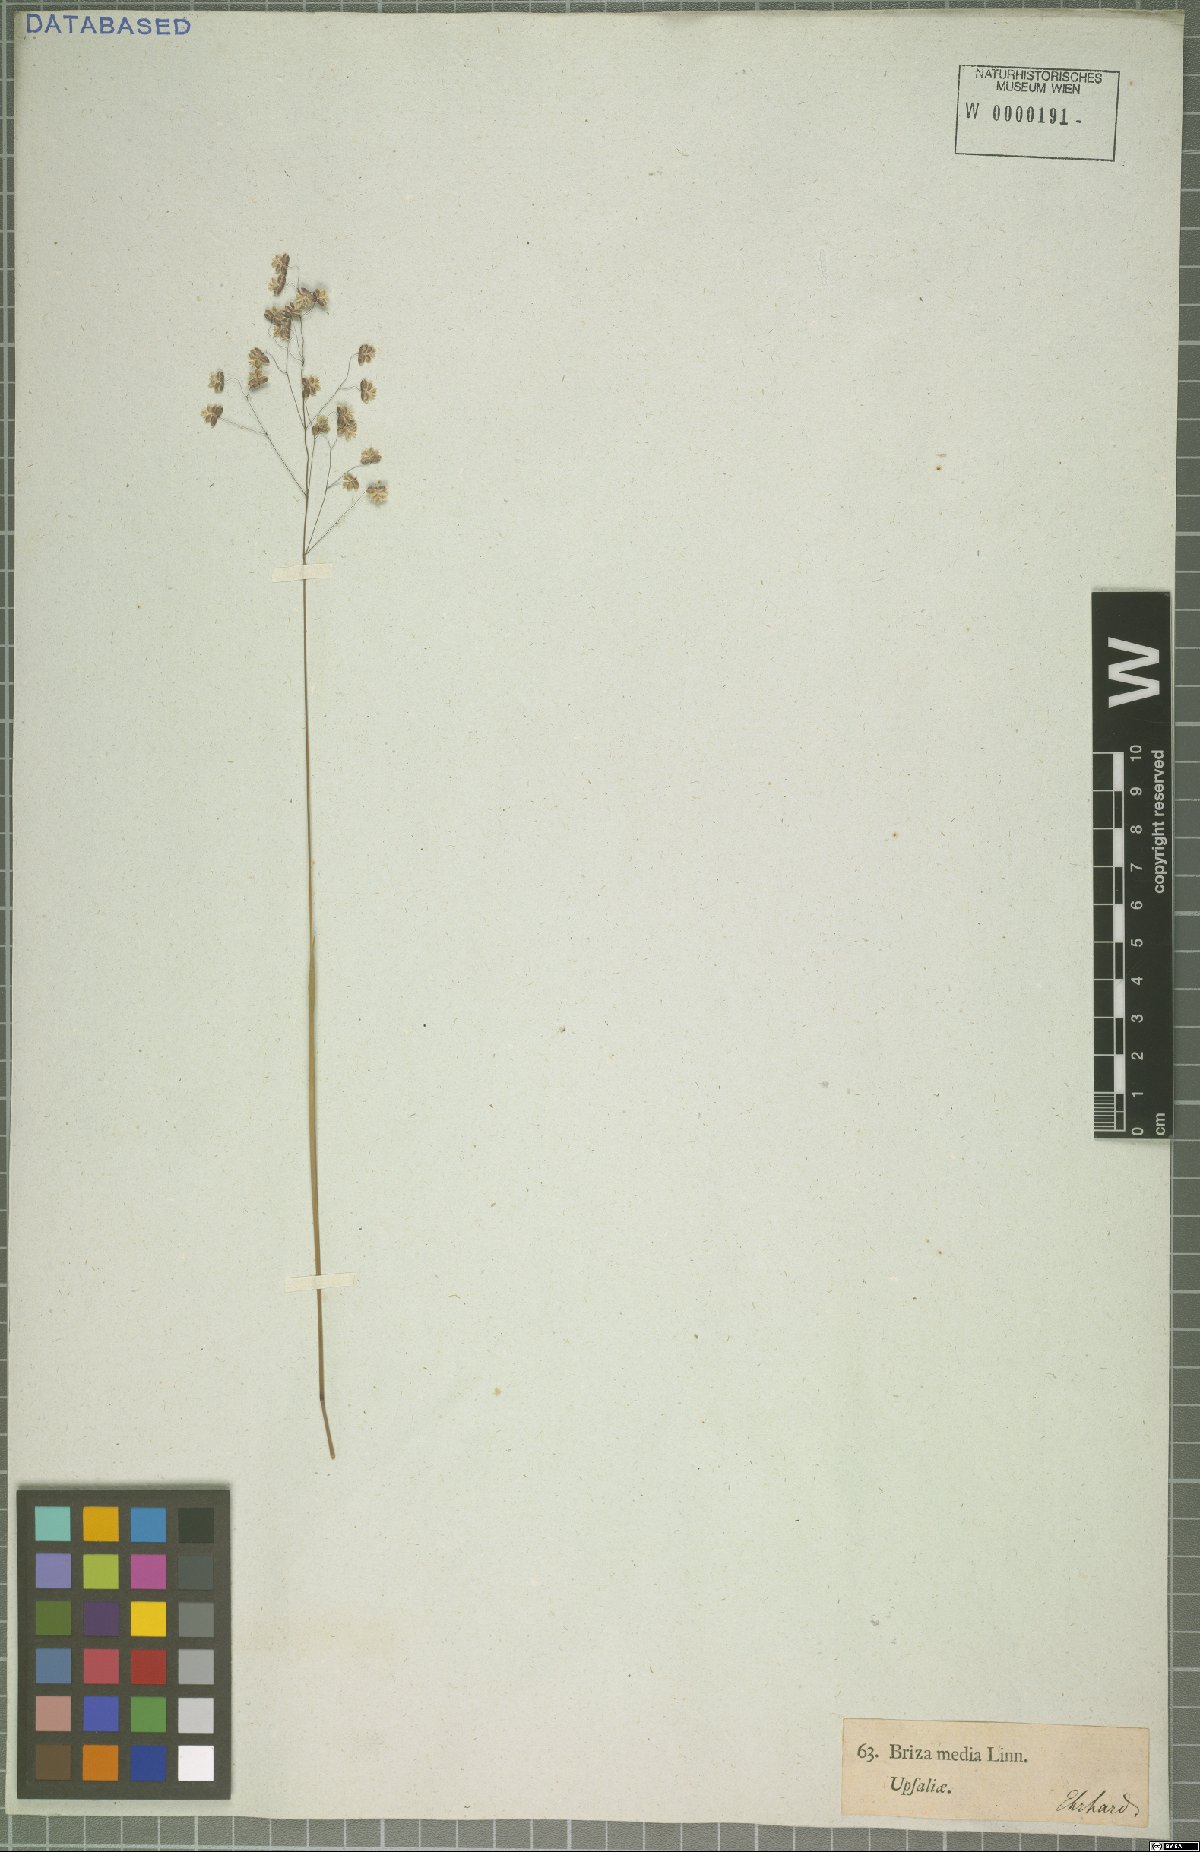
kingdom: Plantae
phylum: Tracheophyta
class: Liliopsida
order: Poales
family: Poaceae
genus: Briza
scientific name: Briza media
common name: Quaking grass
